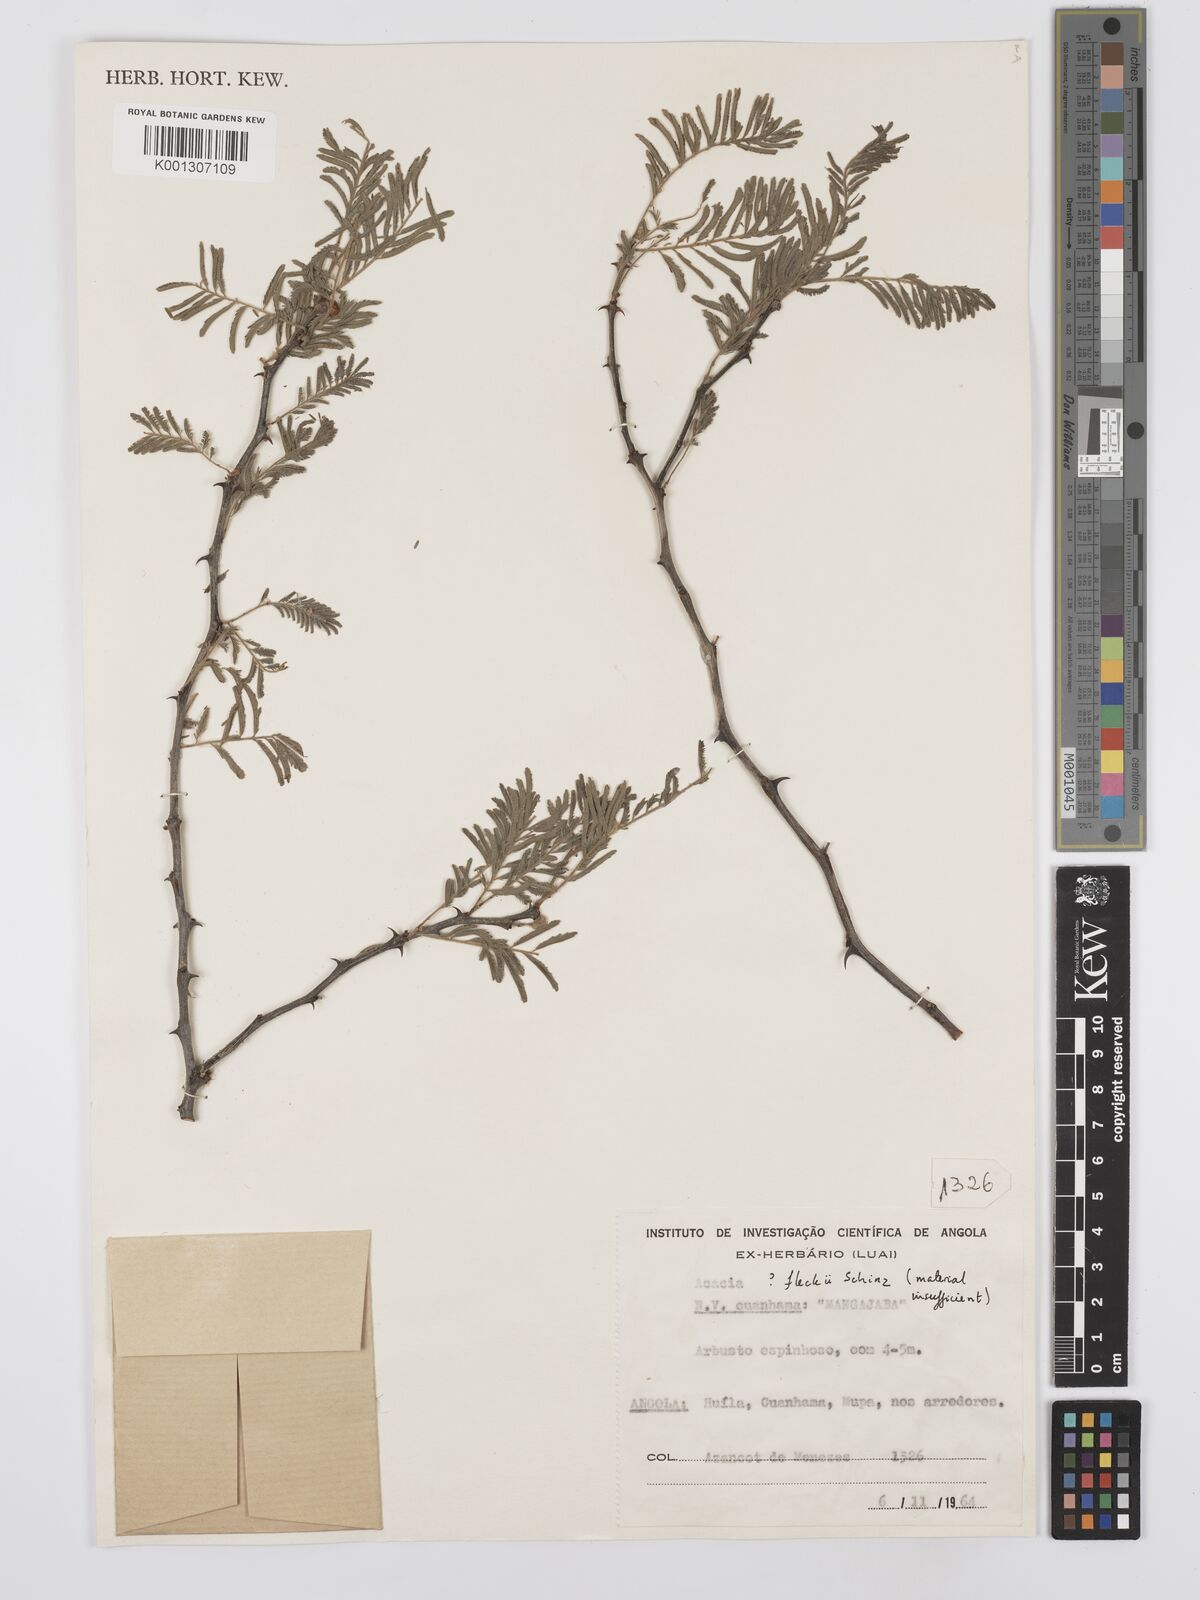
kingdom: Plantae
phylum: Tracheophyta
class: Magnoliopsida
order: Fabales
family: Fabaceae
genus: Senegalia
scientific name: Senegalia fleckii
